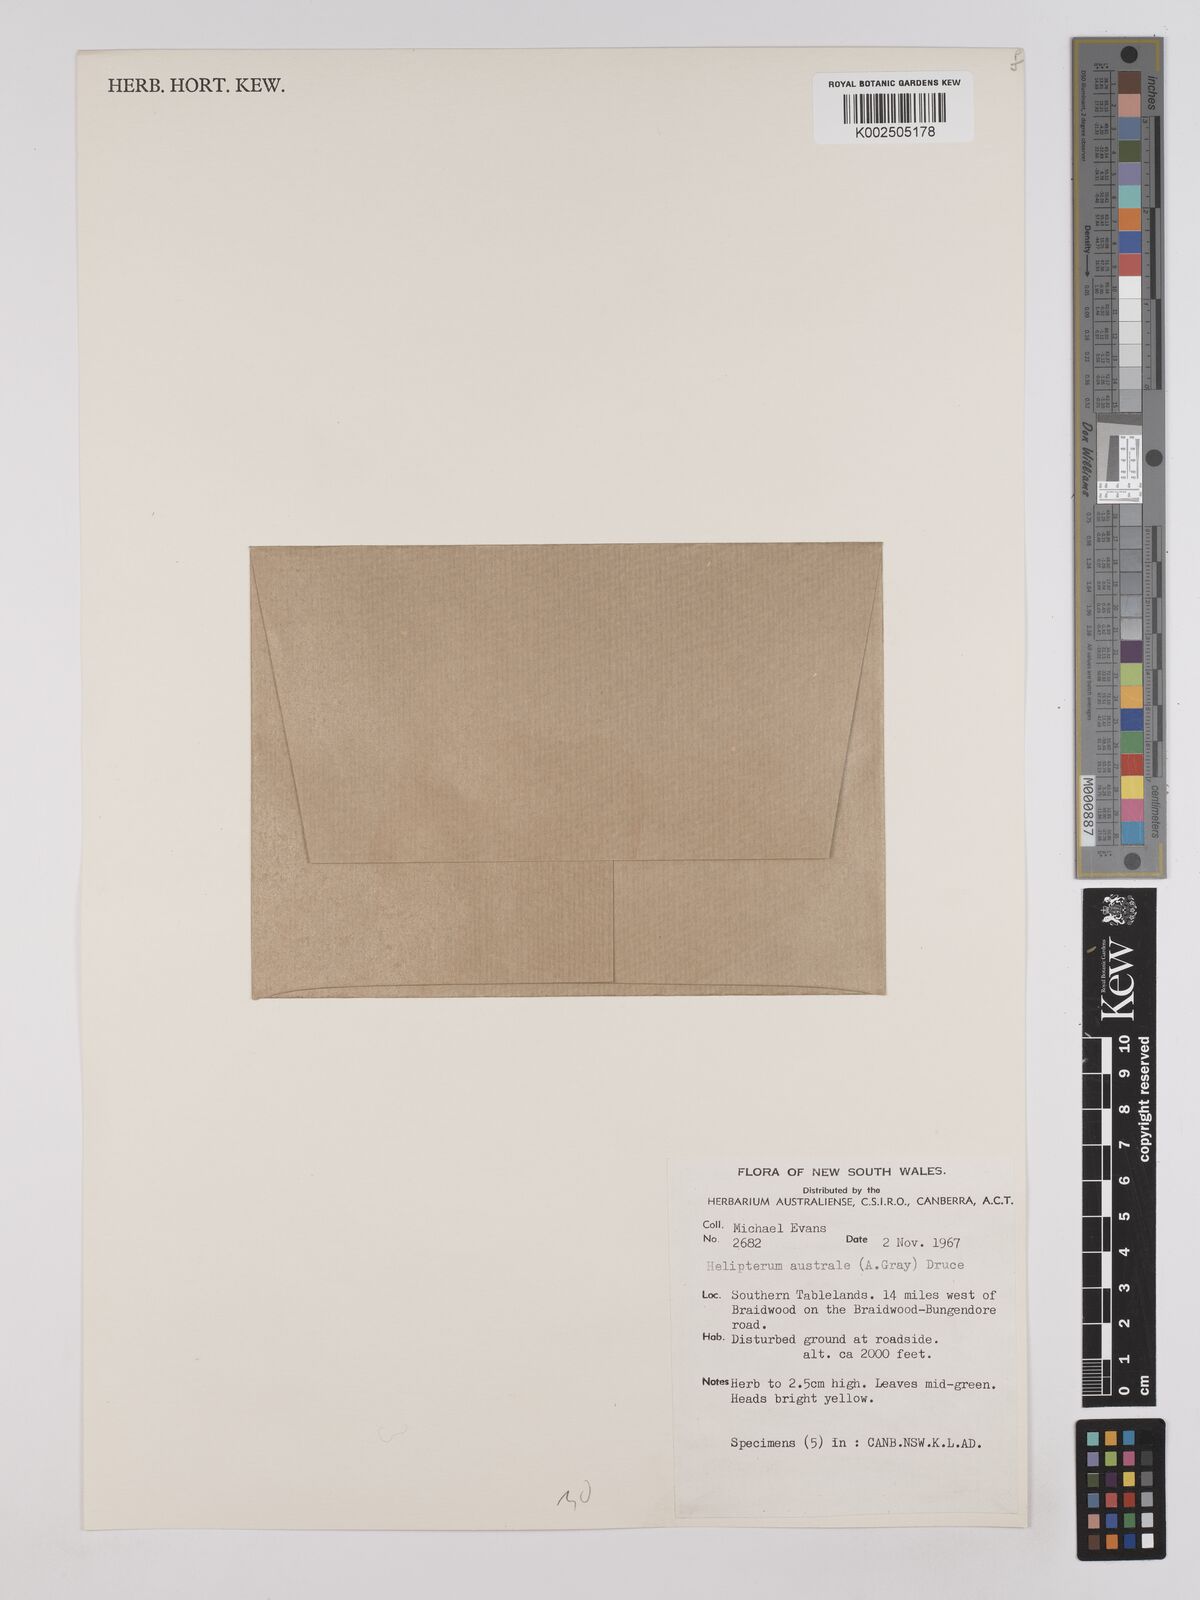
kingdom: Plantae
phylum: Tracheophyta
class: Magnoliopsida
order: Asterales
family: Asteraceae
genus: Triptilodiscus
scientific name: Triptilodiscus pygmaeus
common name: Common sunray
